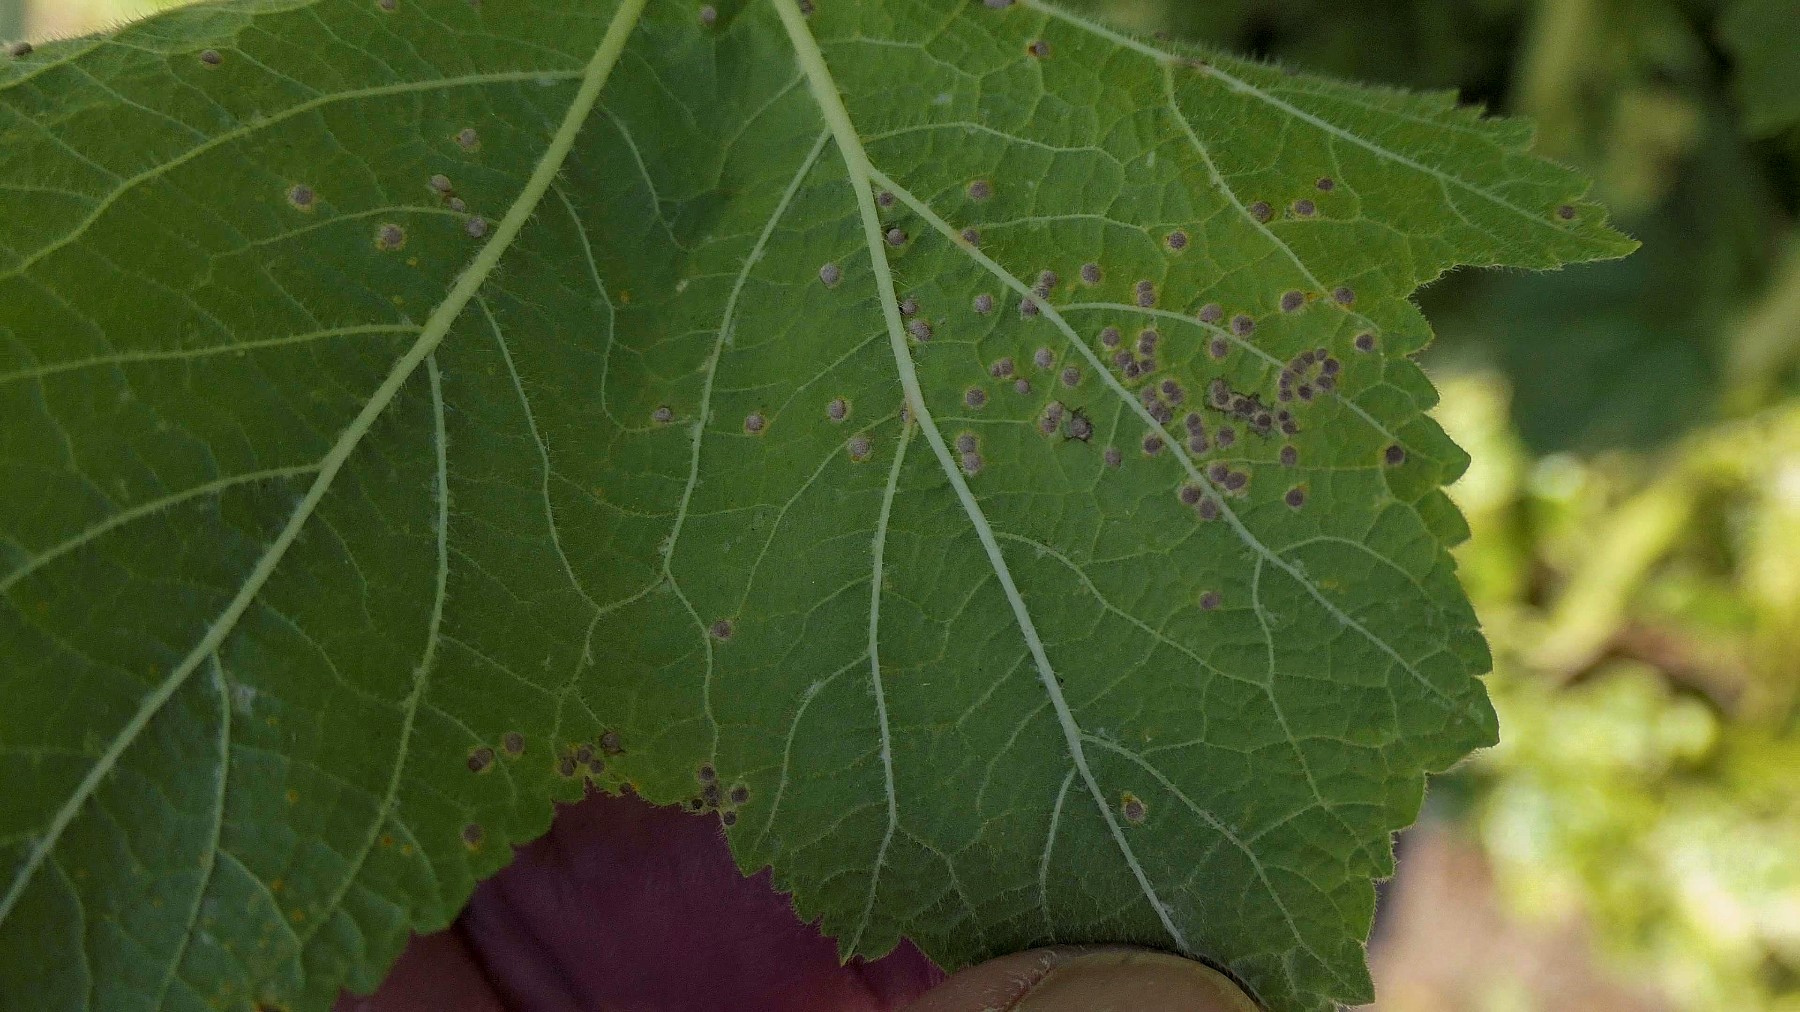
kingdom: Fungi
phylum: Basidiomycota
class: Pucciniomycetes
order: Pucciniales
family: Pucciniaceae
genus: Puccinia
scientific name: Puccinia malvacearum
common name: stokrose-tvecellerust
